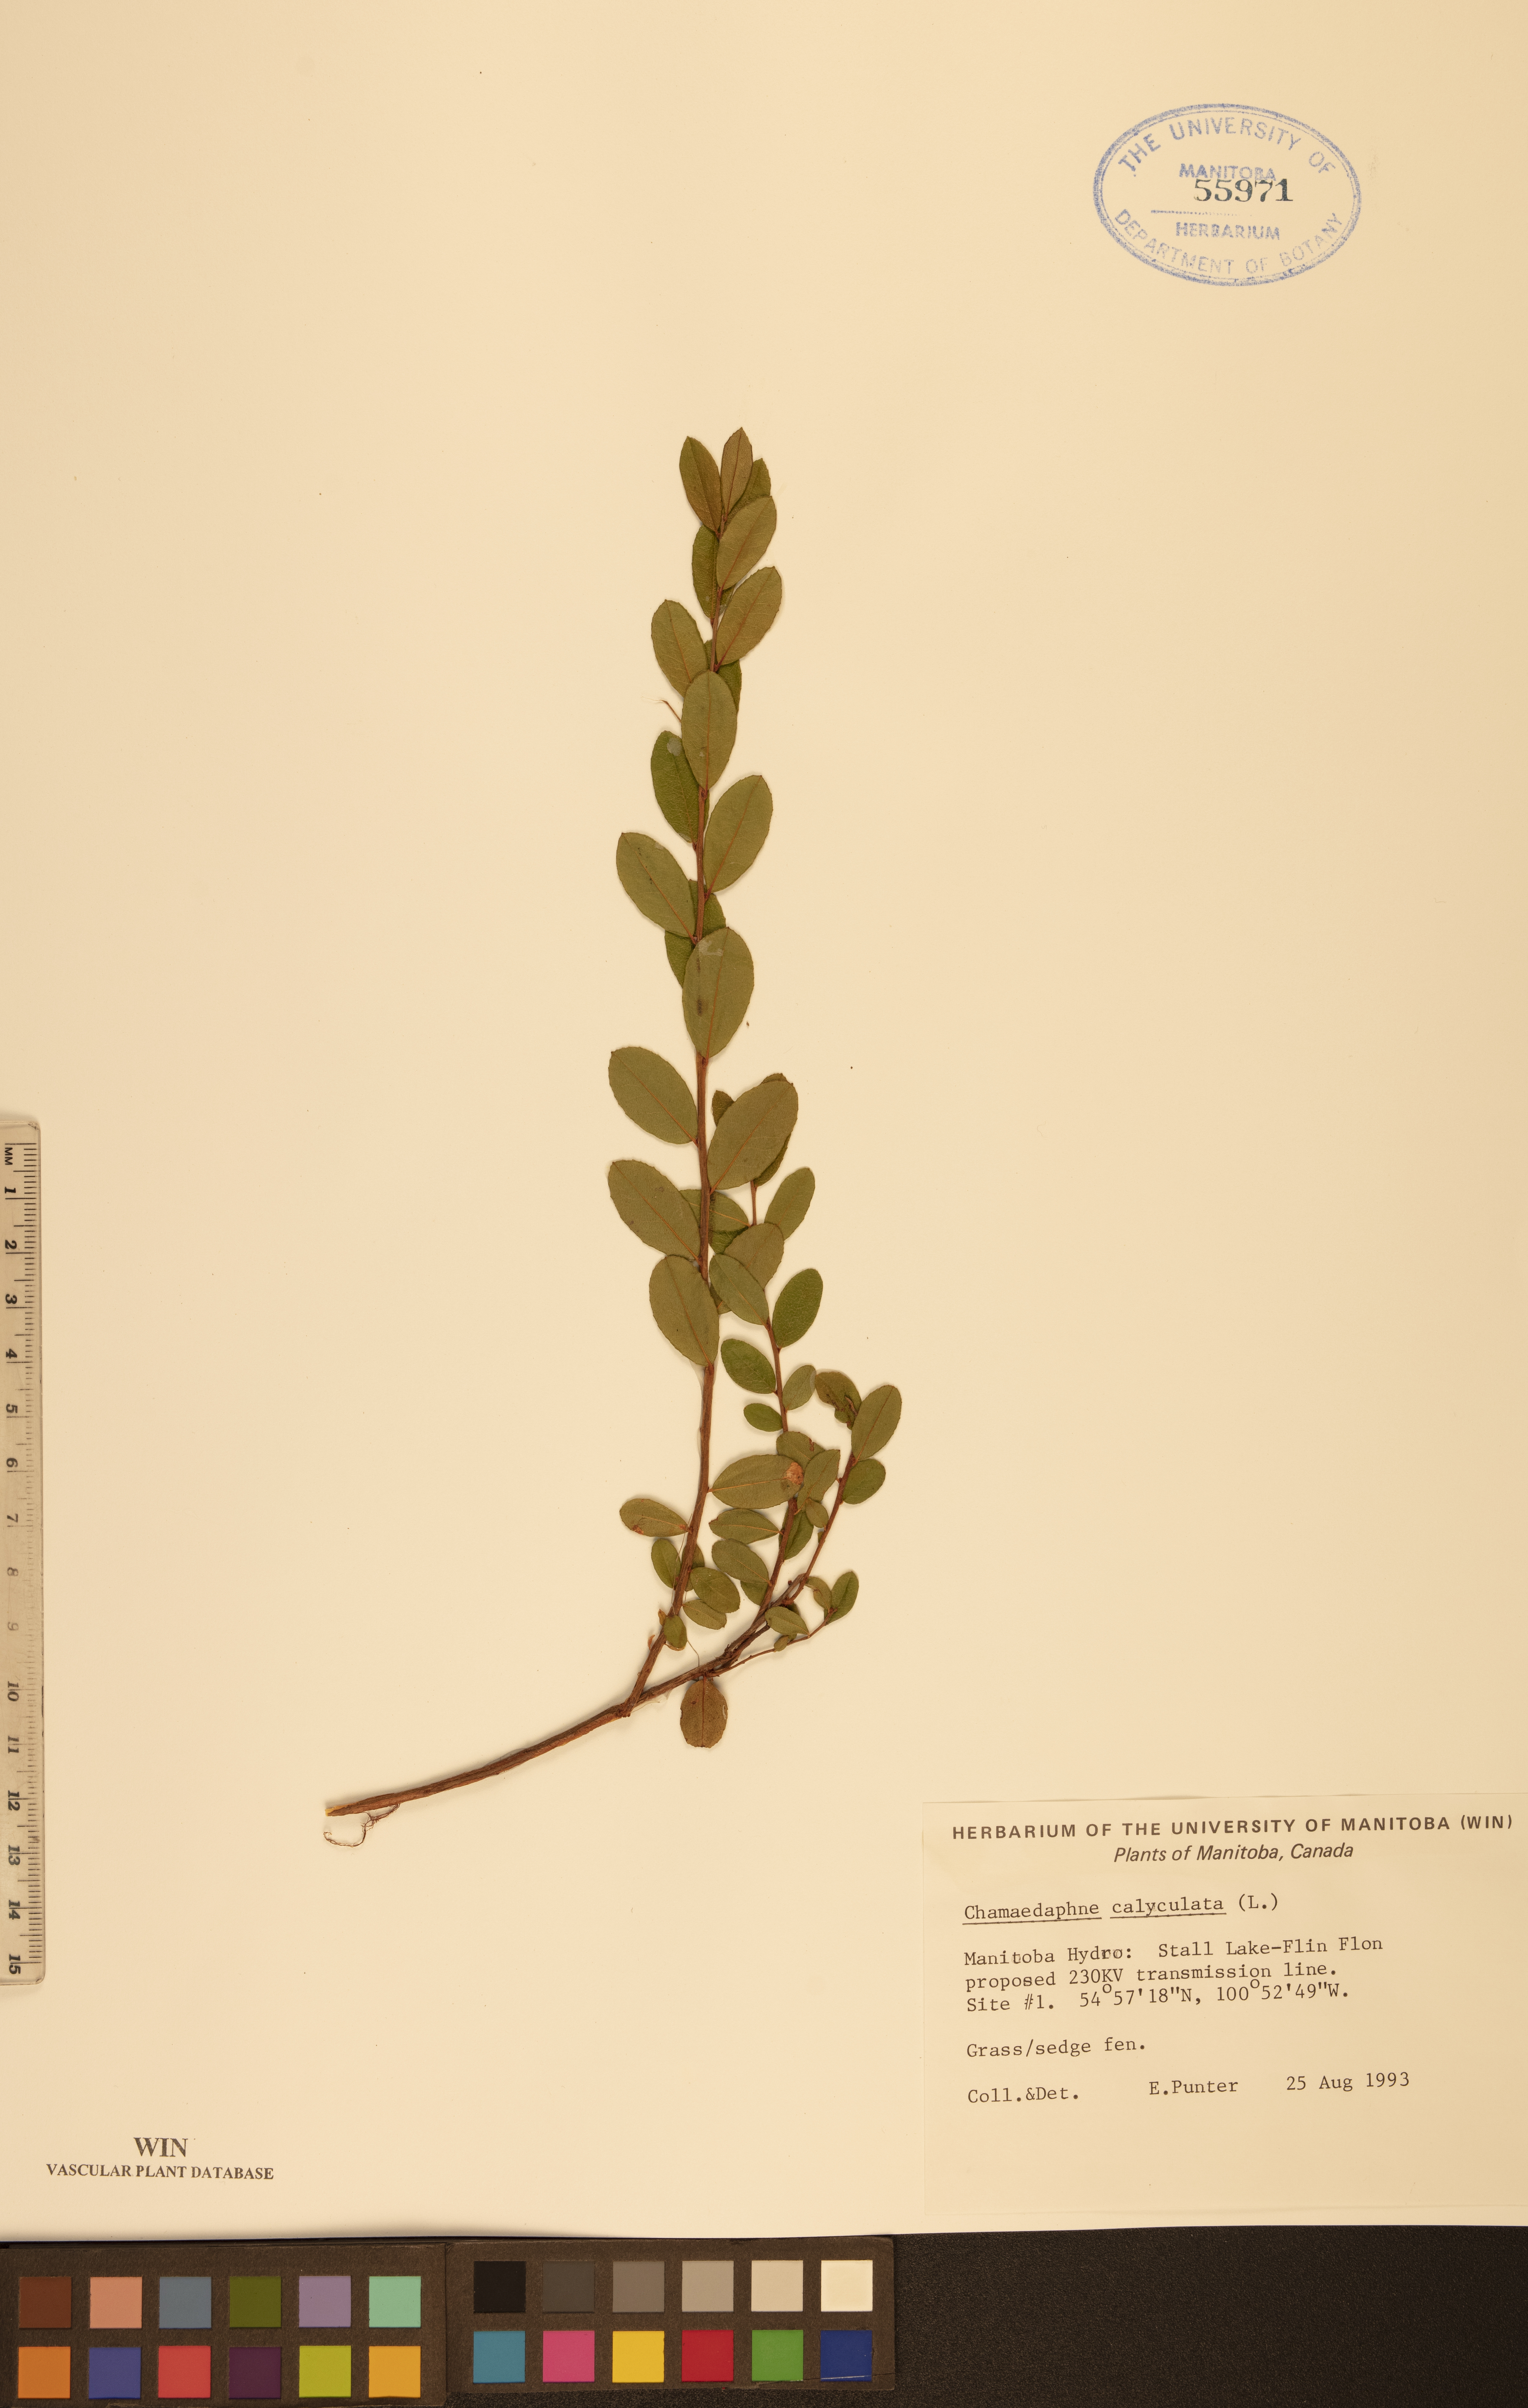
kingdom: Plantae
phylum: Tracheophyta
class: Magnoliopsida
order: Ericales
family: Ericaceae
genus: Chamaedaphne
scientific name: Chamaedaphne calyculata
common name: Leatherleaf
